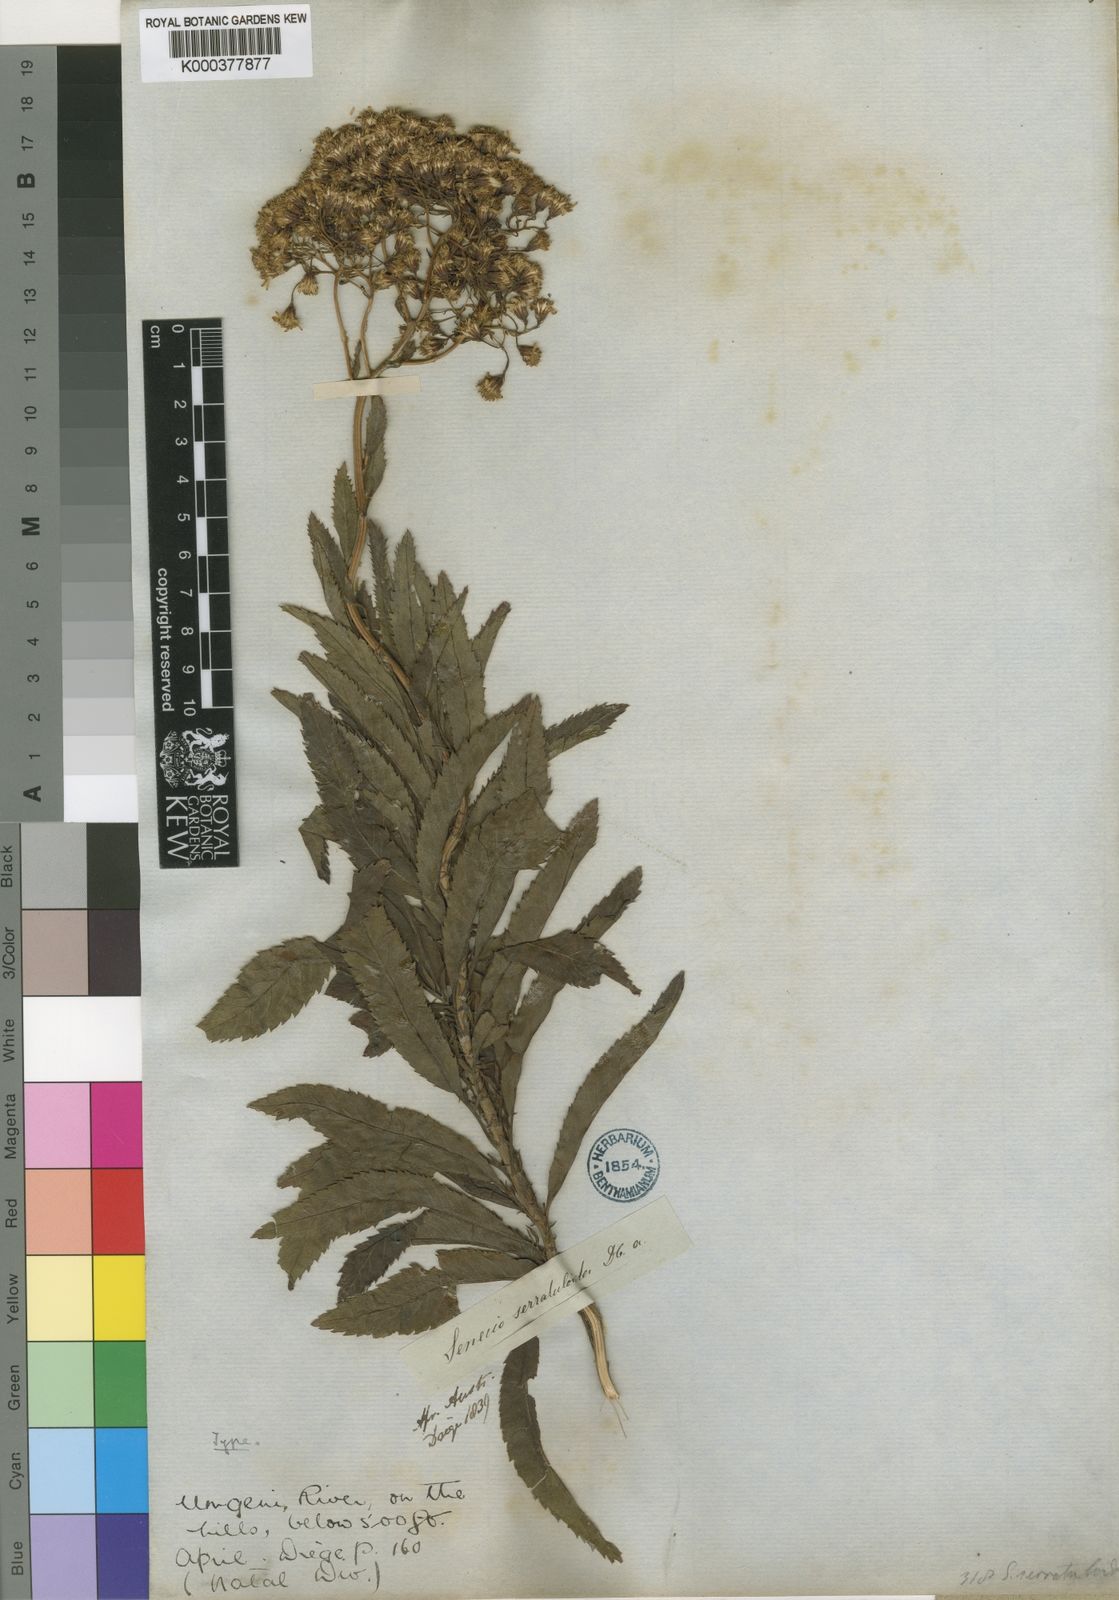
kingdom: Plantae
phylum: Tracheophyta
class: Magnoliopsida
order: Asterales
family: Asteraceae
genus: Senecio
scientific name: Senecio serratuloides
